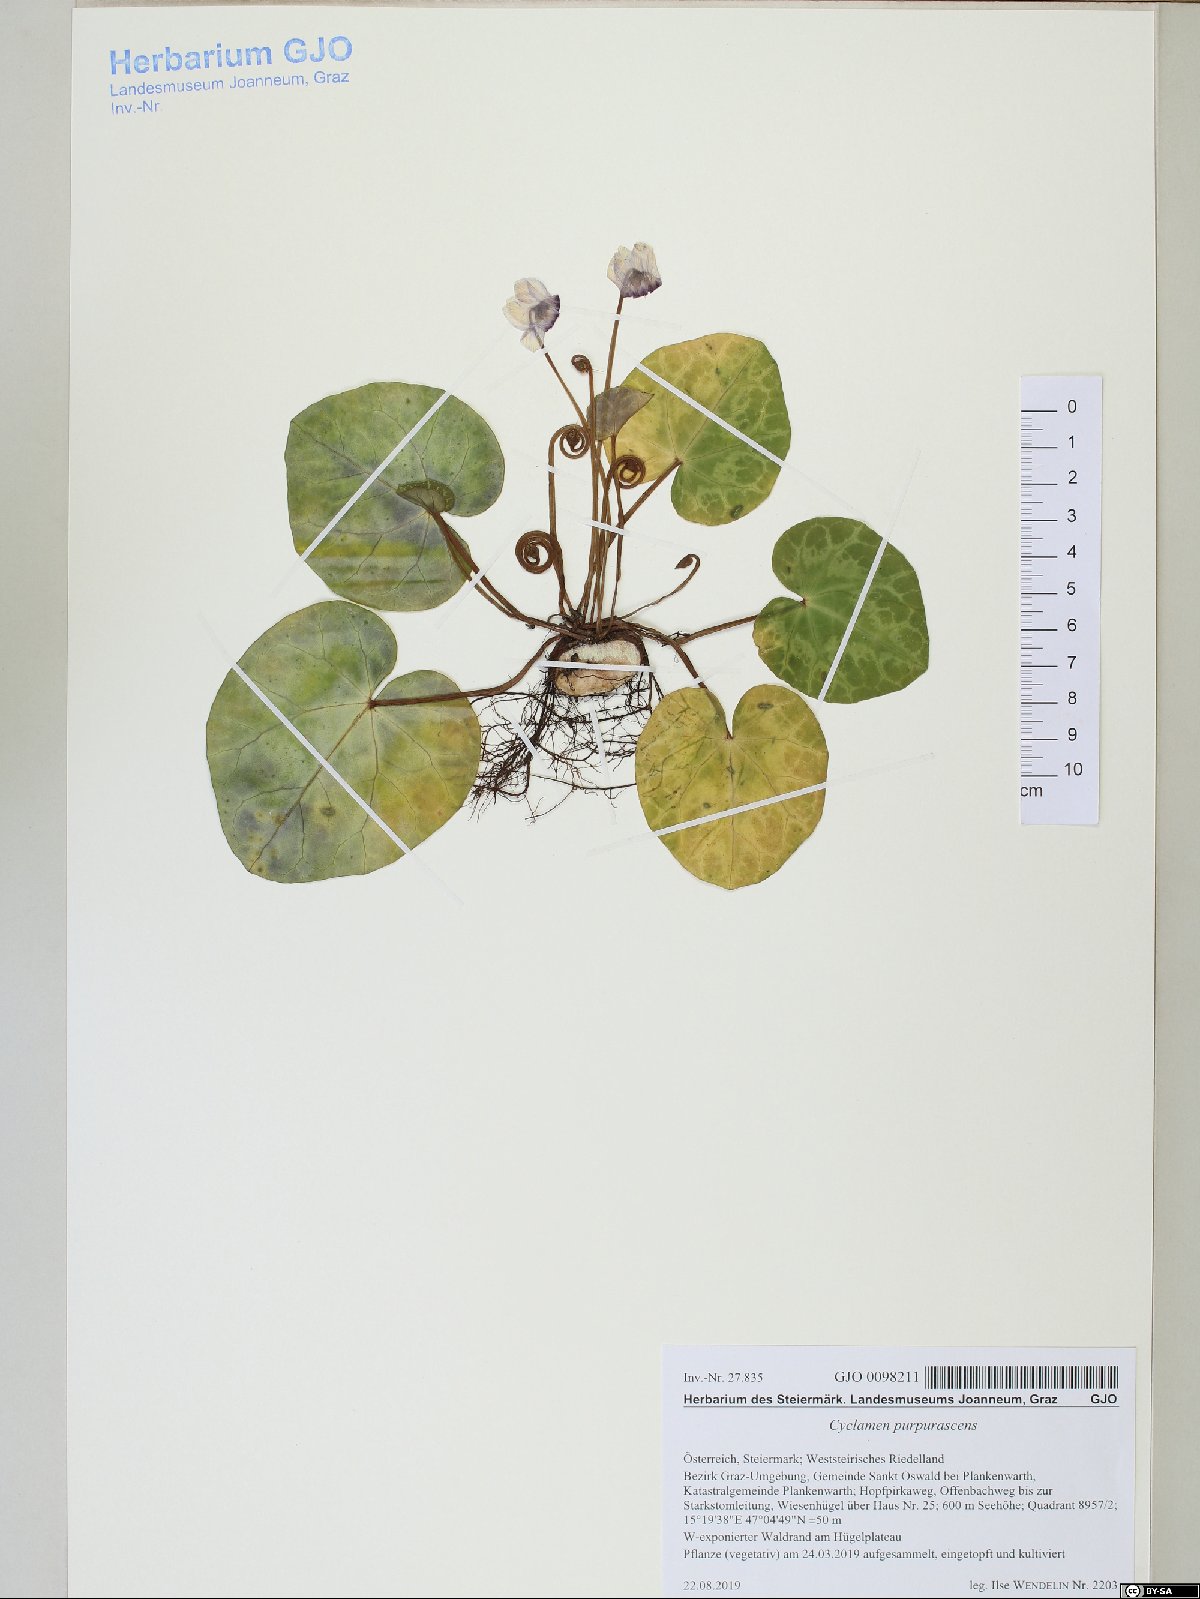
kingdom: Plantae
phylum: Tracheophyta
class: Magnoliopsida
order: Ericales
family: Primulaceae
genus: Cyclamen
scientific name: Cyclamen purpurascens
